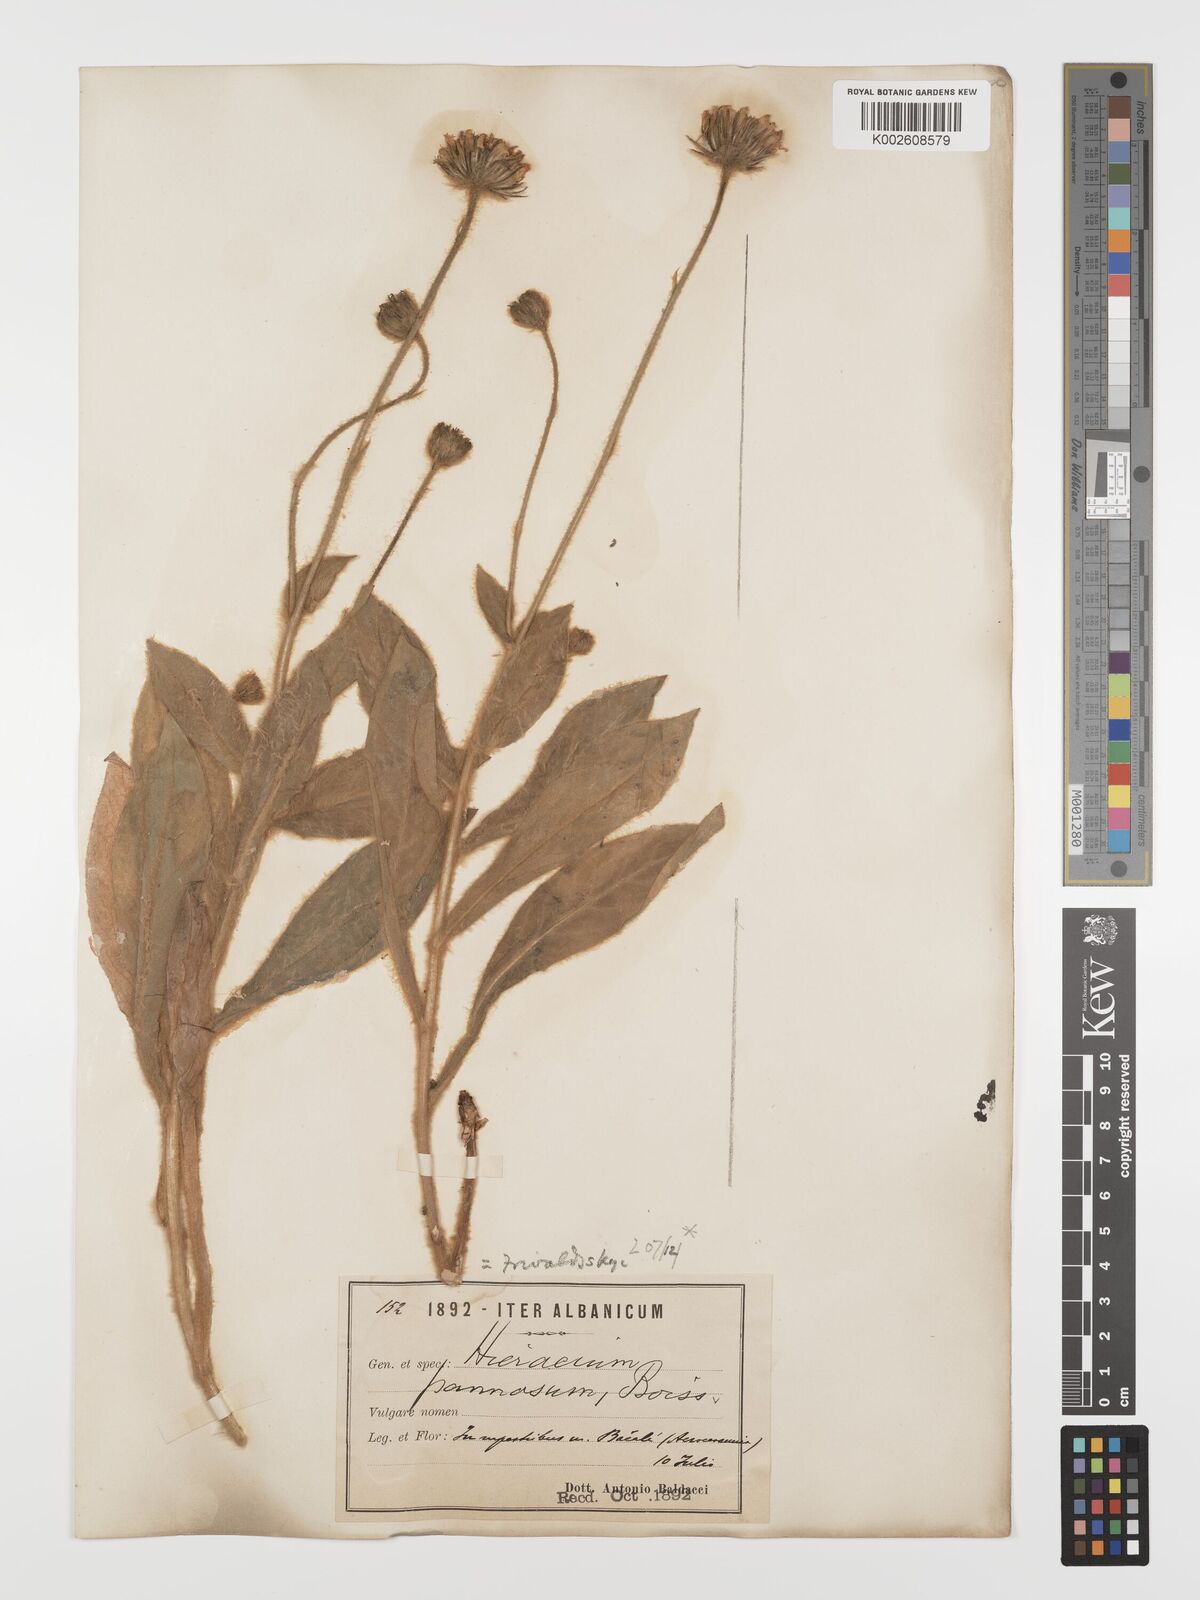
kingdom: Plantae
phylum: Tracheophyta
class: Magnoliopsida
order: Asterales
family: Asteraceae
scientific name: Asteraceae
